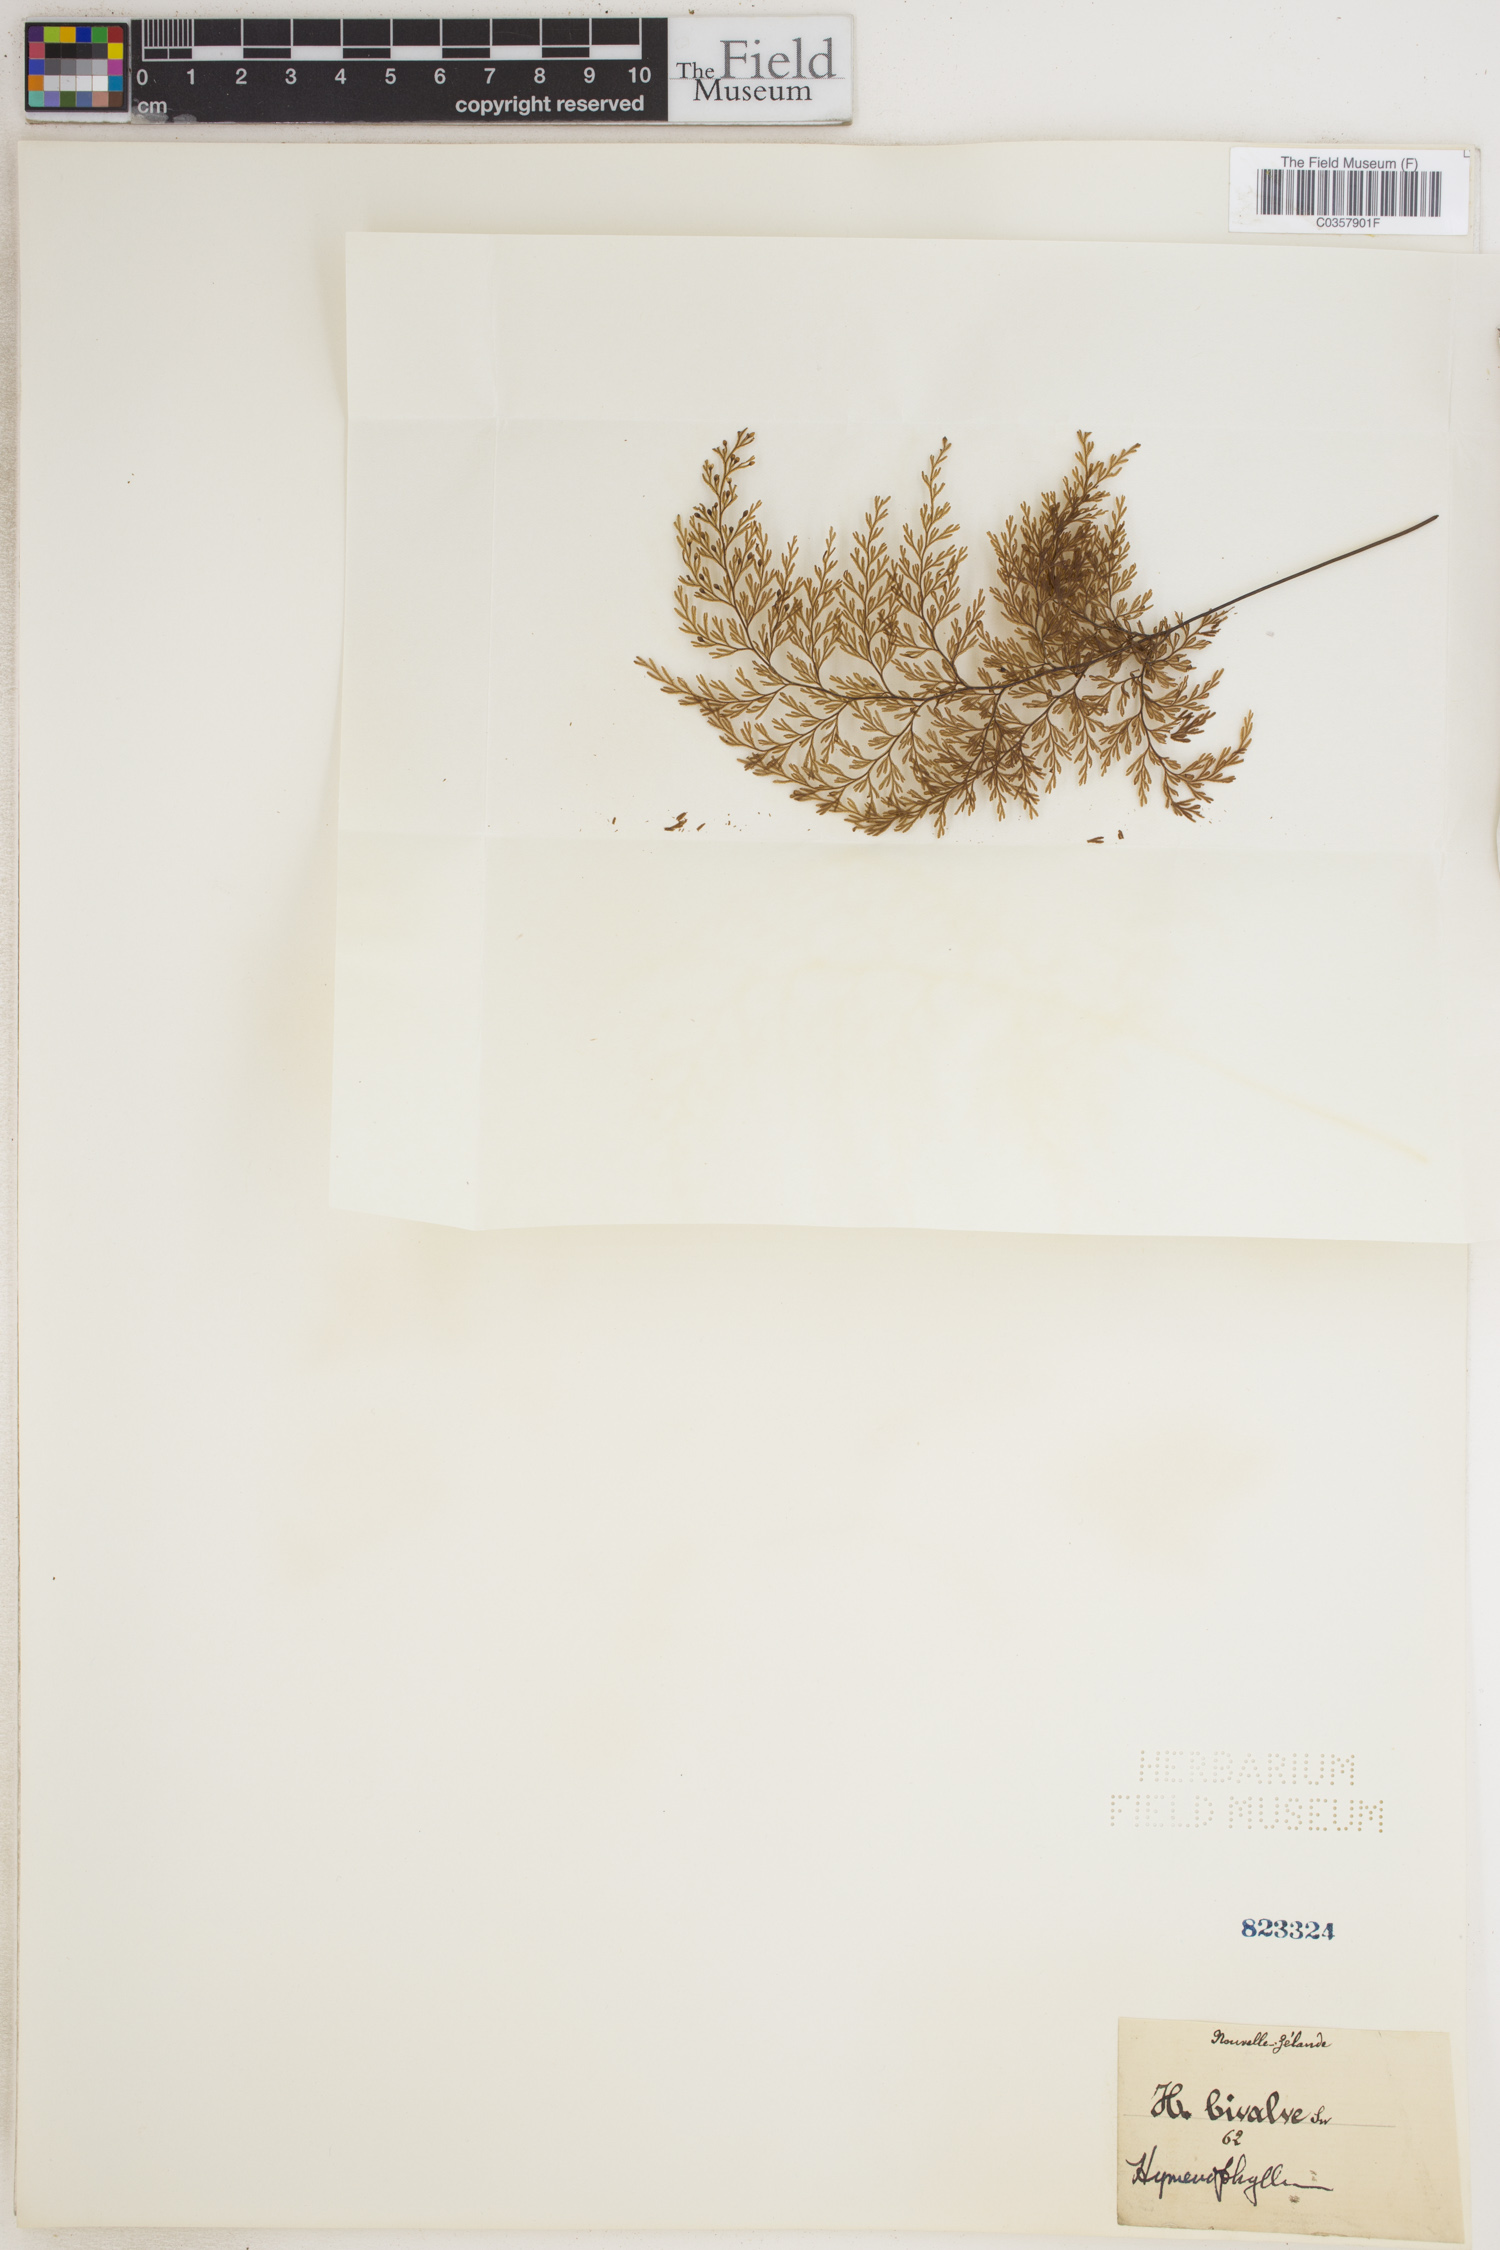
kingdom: Plantae
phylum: Tracheophyta
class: Polypodiopsida
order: Hymenophyllales
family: Hymenophyllaceae
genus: Hymenophyllum
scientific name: Hymenophyllum serrulatum
